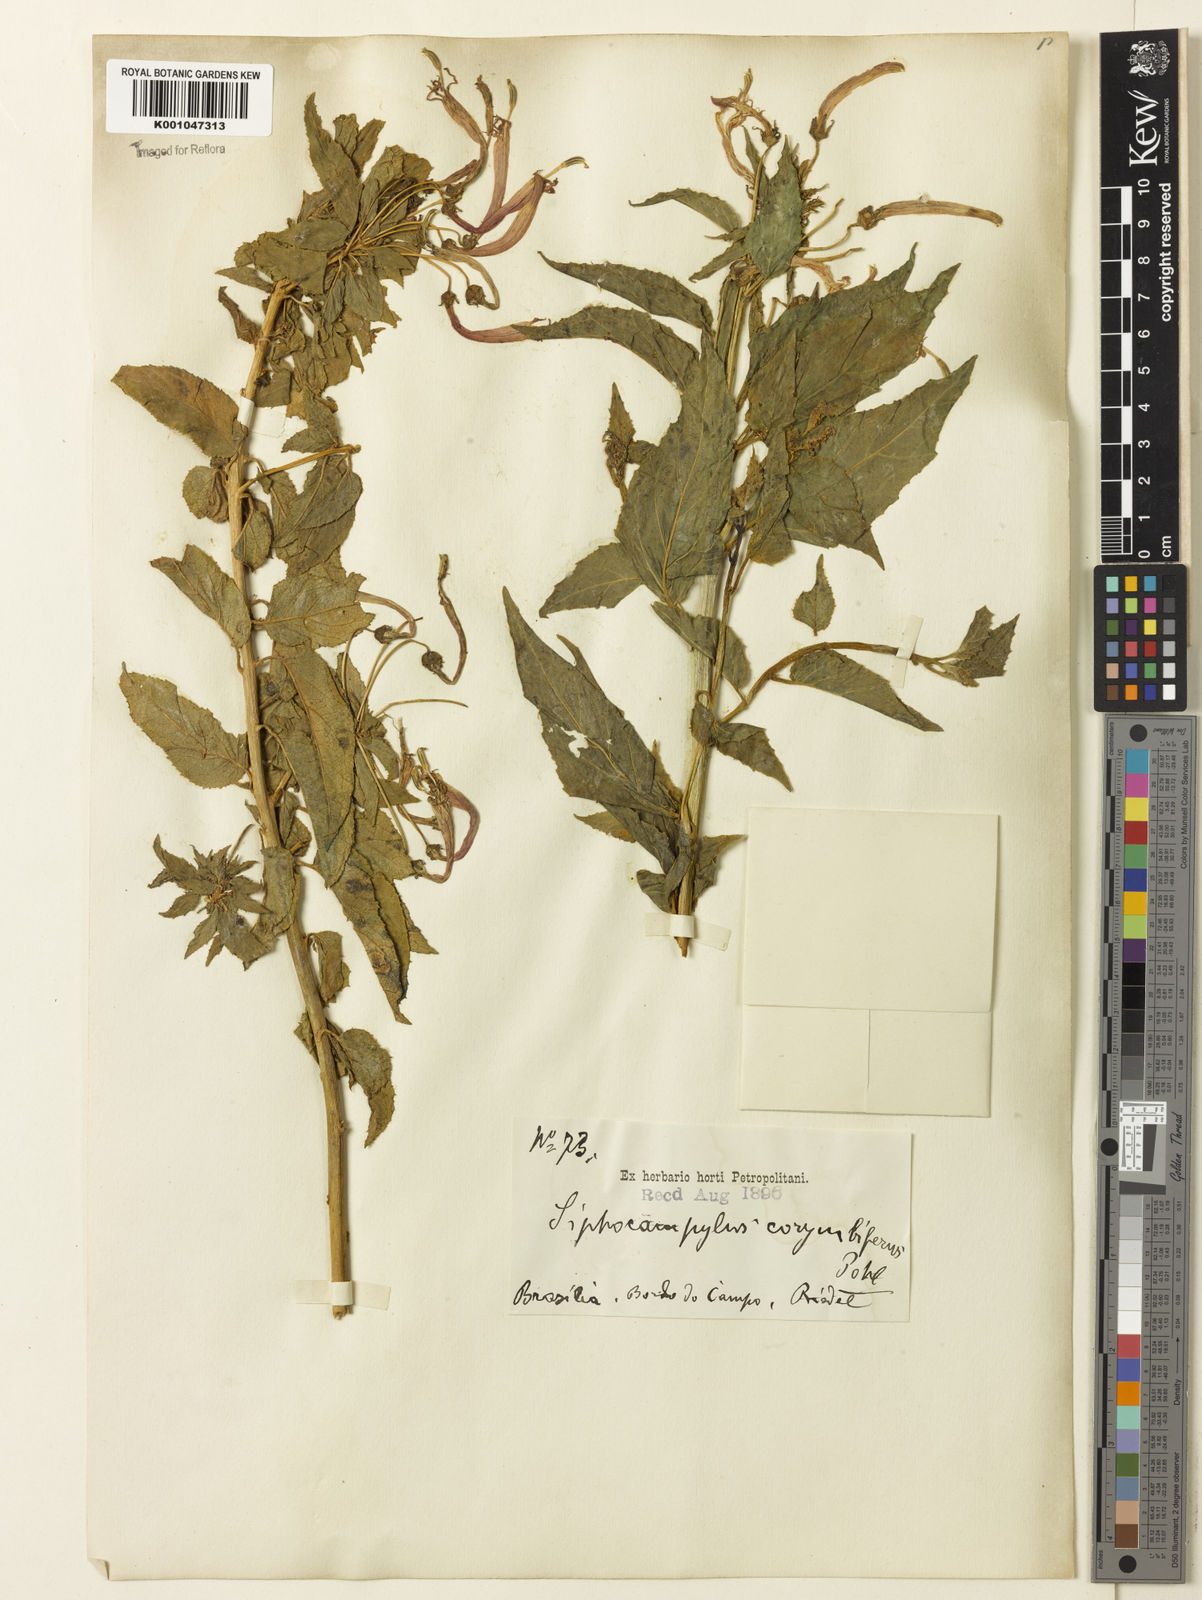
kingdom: Plantae
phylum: Tracheophyta
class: Magnoliopsida
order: Asterales
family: Campanulaceae
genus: Siphocampylus
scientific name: Siphocampylus corymbifer
